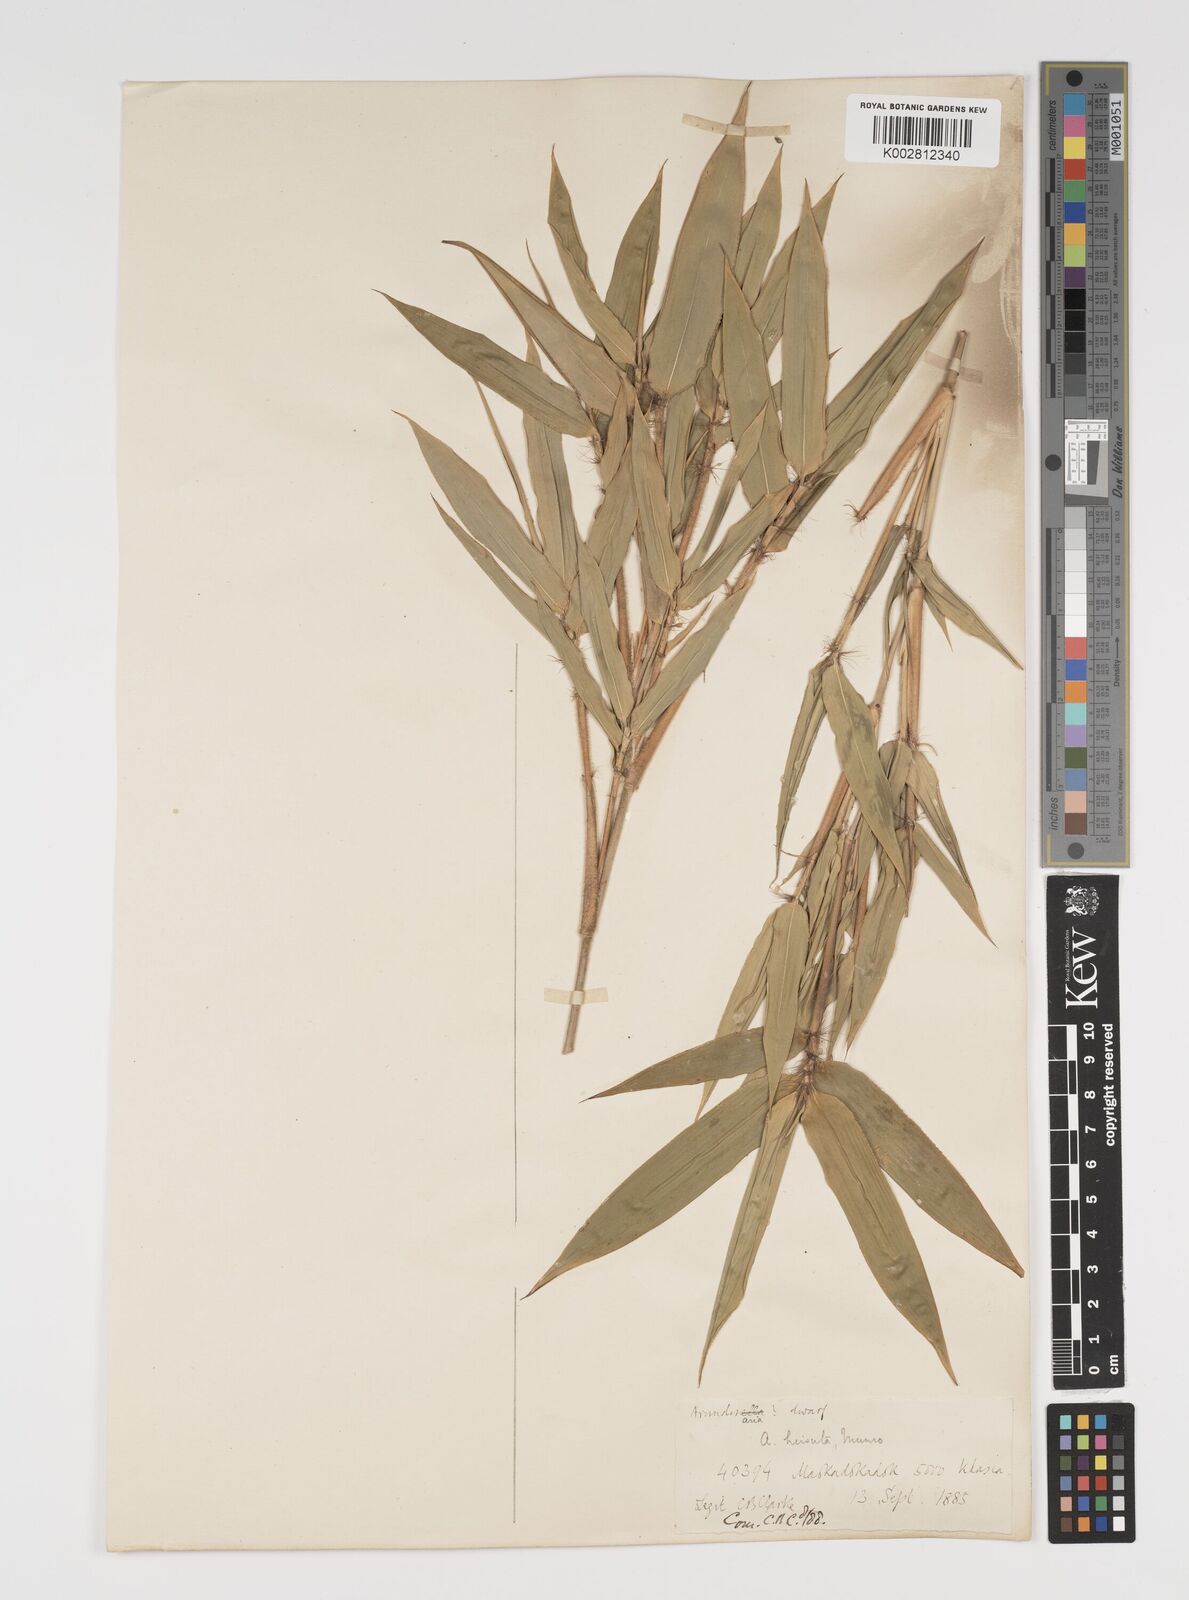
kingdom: Plantae
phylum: Tracheophyta
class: Liliopsida
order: Poales
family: Poaceae
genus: Yushania
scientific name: Yushania hirsuta
